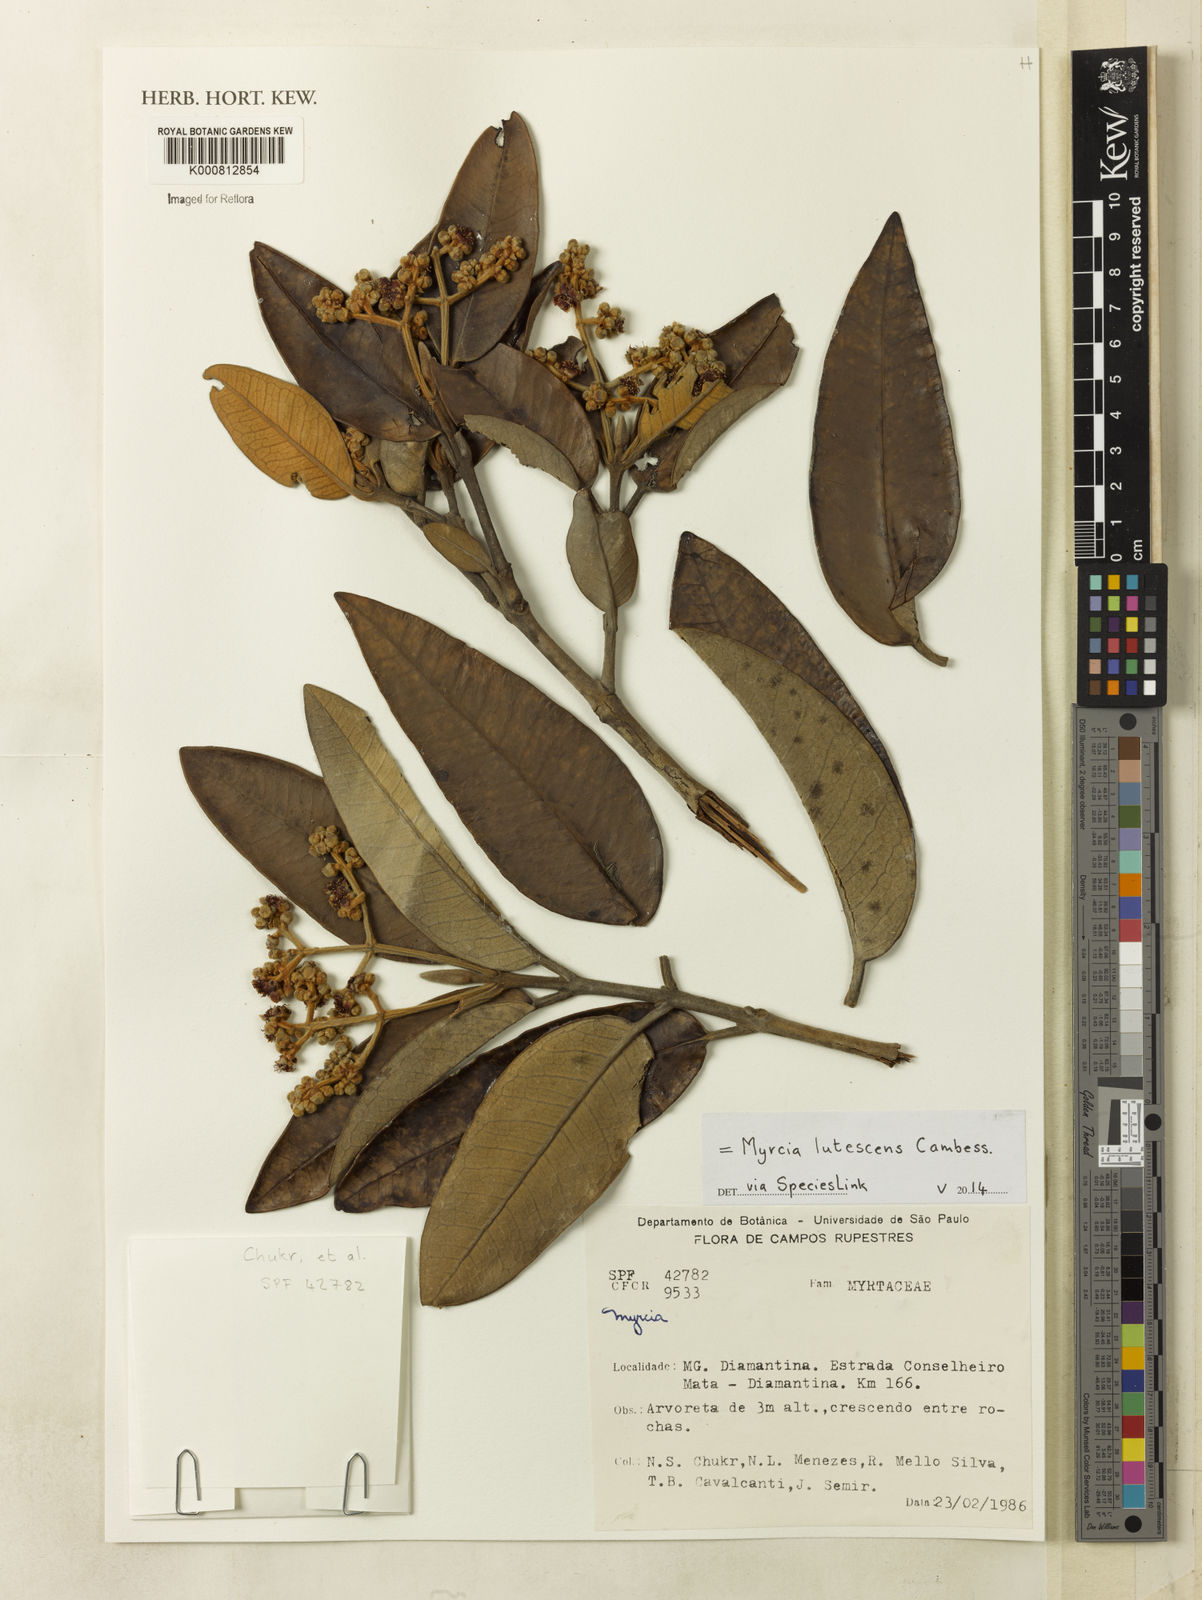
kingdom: Plantae
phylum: Tracheophyta
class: Magnoliopsida
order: Myrtales
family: Myrtaceae
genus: Myrcia
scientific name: Myrcia lutescens
